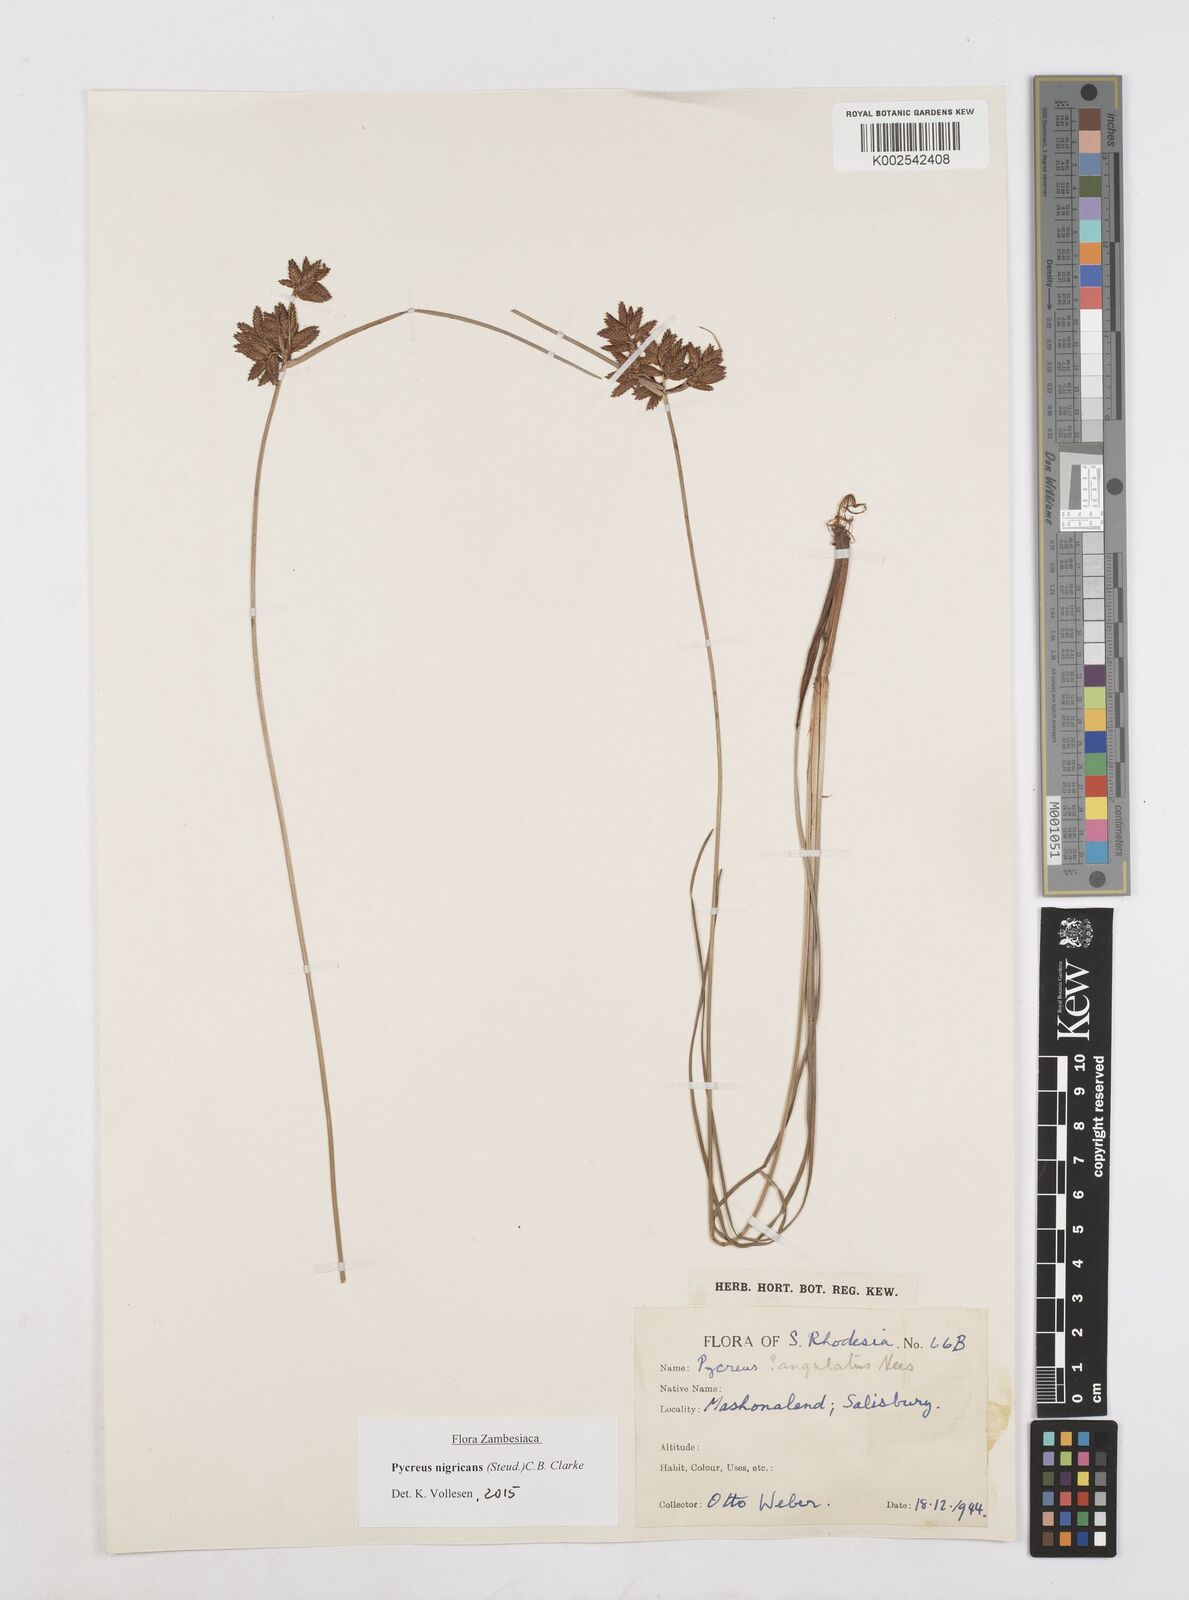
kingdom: Plantae
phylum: Tracheophyta
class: Liliopsida
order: Poales
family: Cyperaceae
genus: Cyperus
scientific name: Cyperus nigricans
